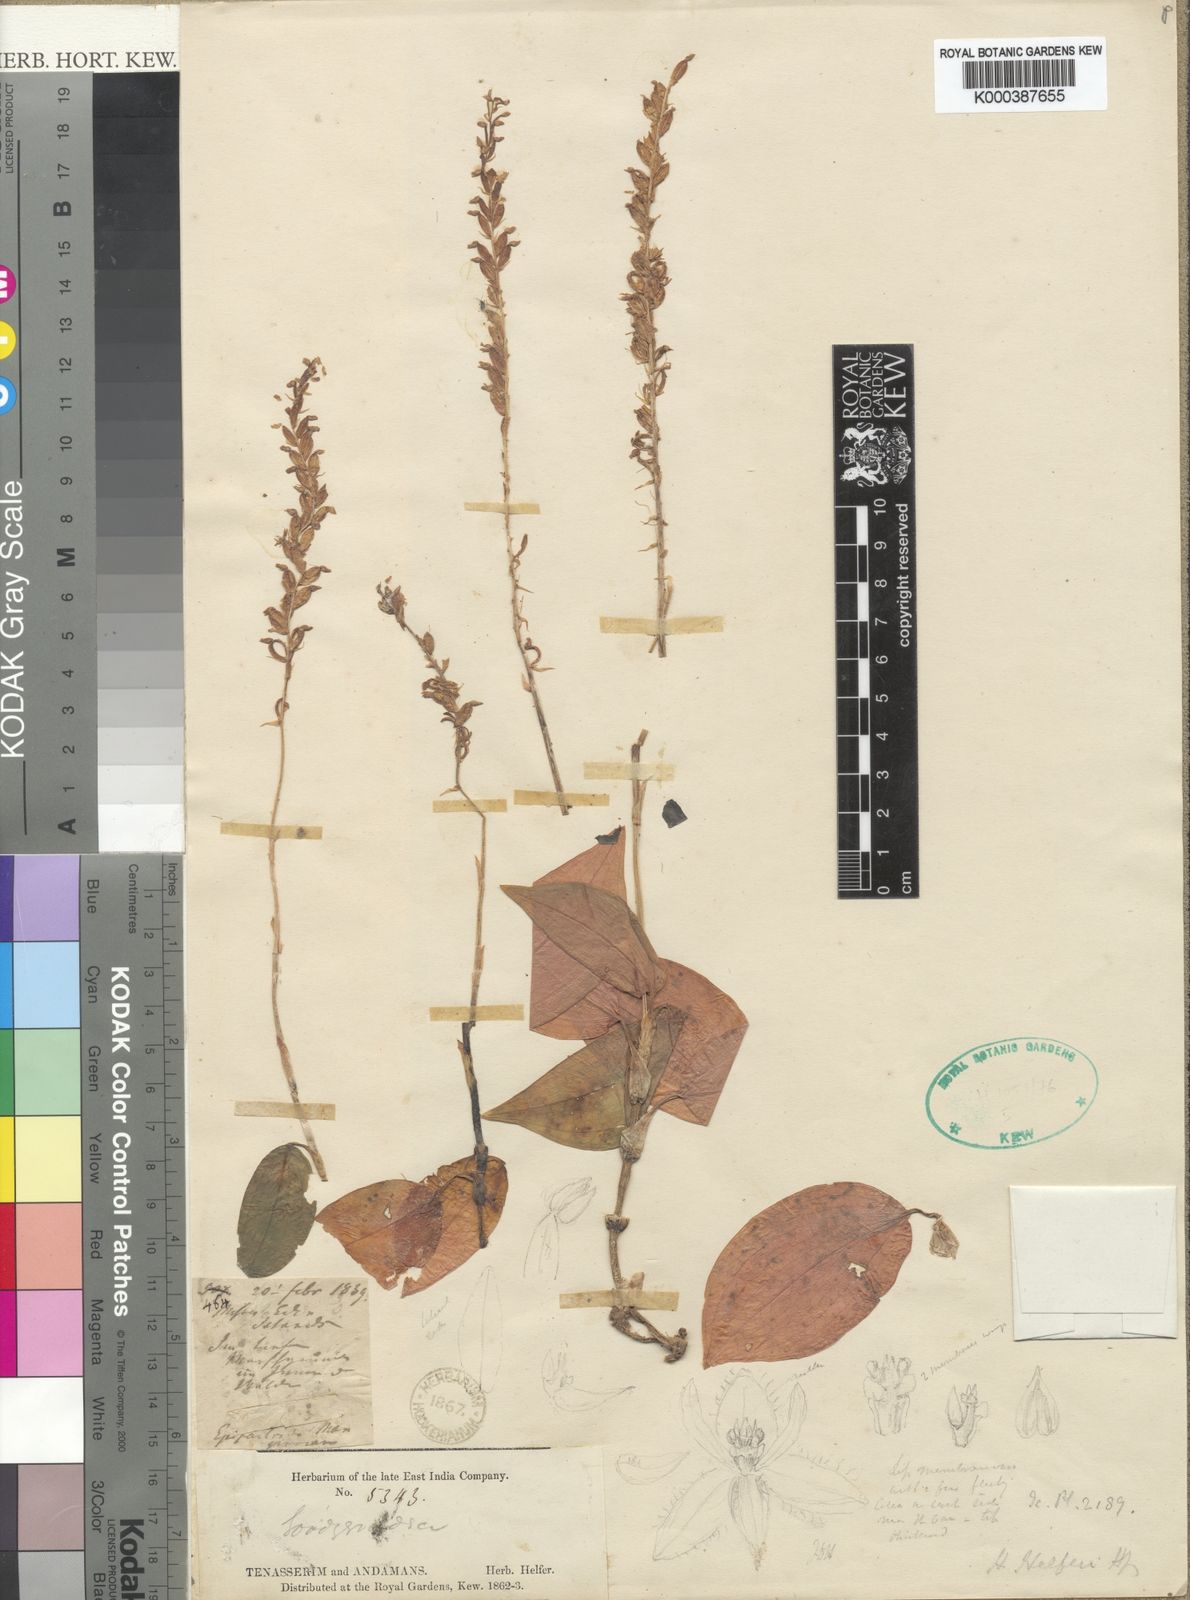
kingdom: Plantae
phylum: Tracheophyta
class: Liliopsida
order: Asparagales
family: Orchidaceae
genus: Hetaeria
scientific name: Hetaeria oblongifolia
